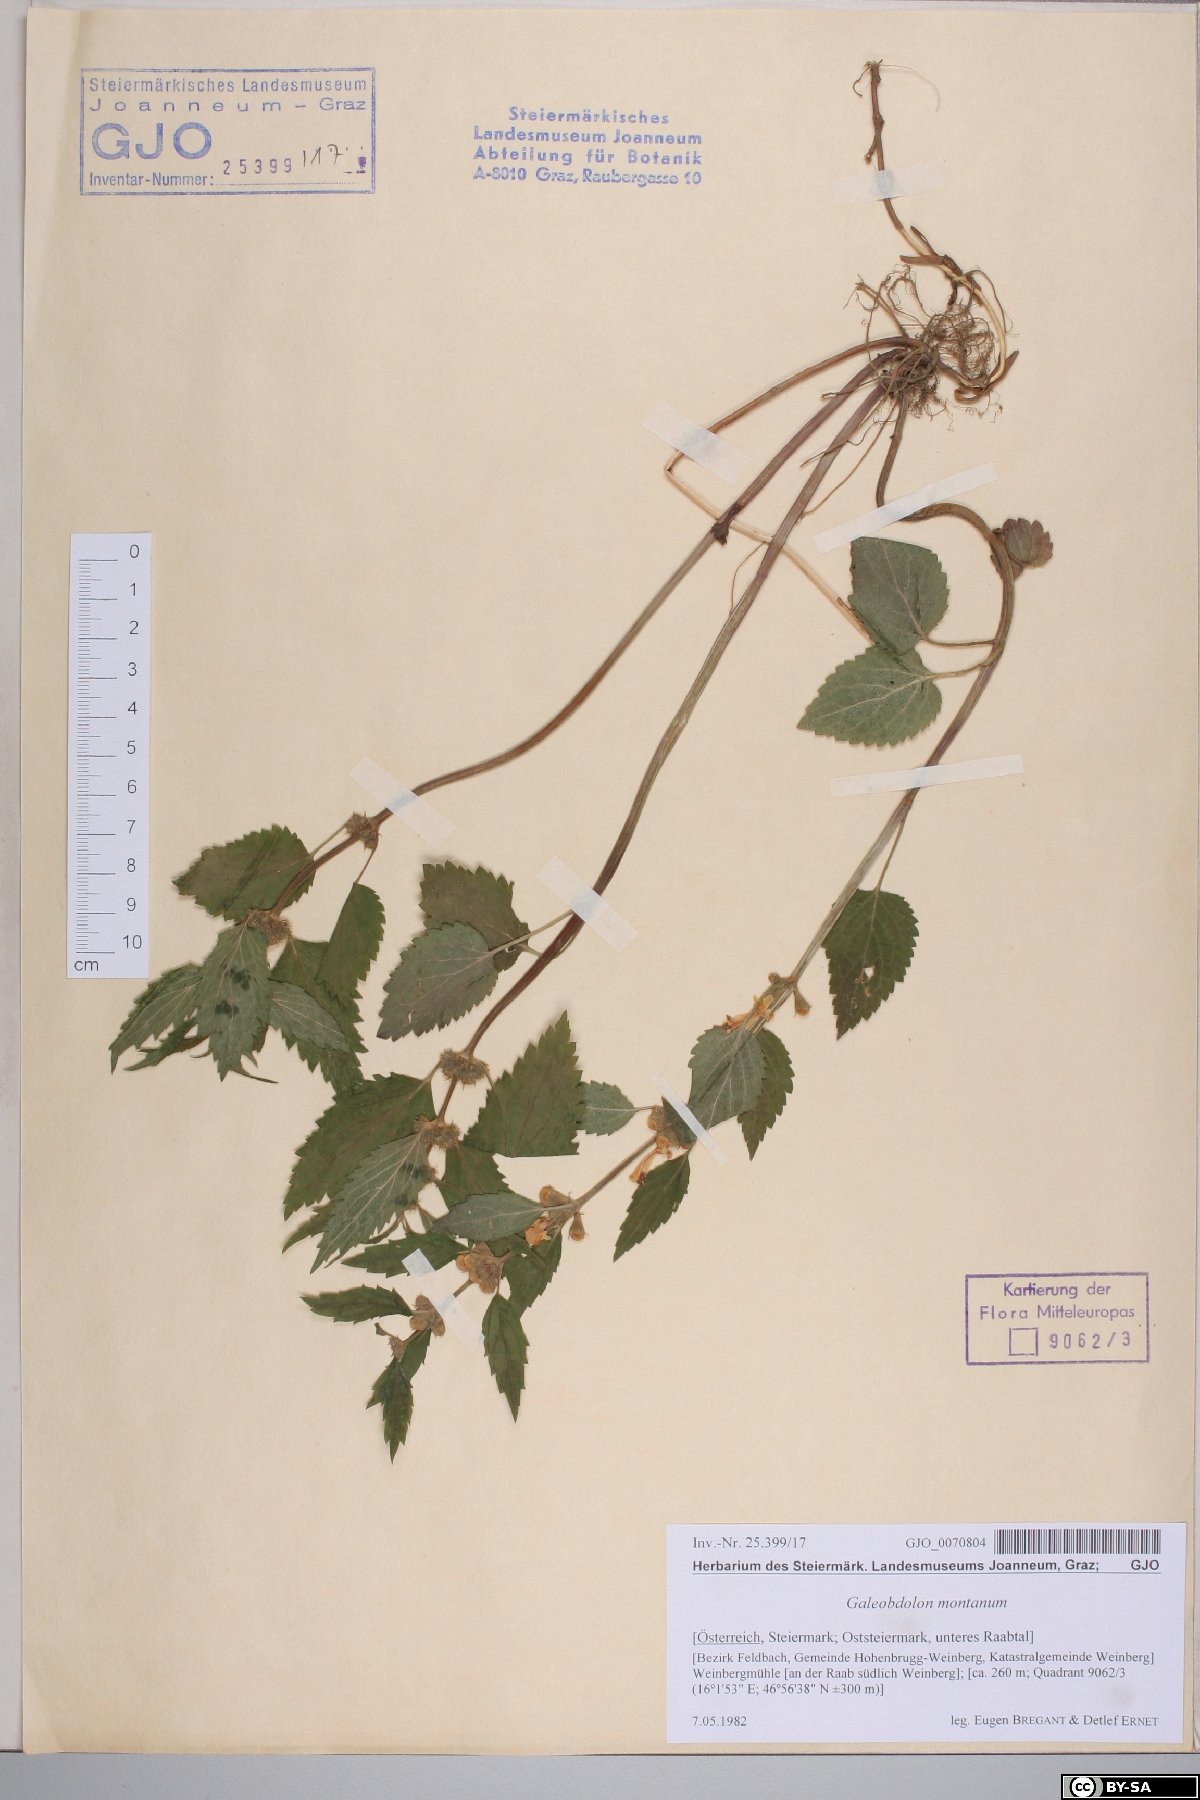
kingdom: Plantae
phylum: Tracheophyta
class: Magnoliopsida
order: Lamiales
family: Lamiaceae
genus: Lamium
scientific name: Lamium galeobdolon
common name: Yellow archangel
